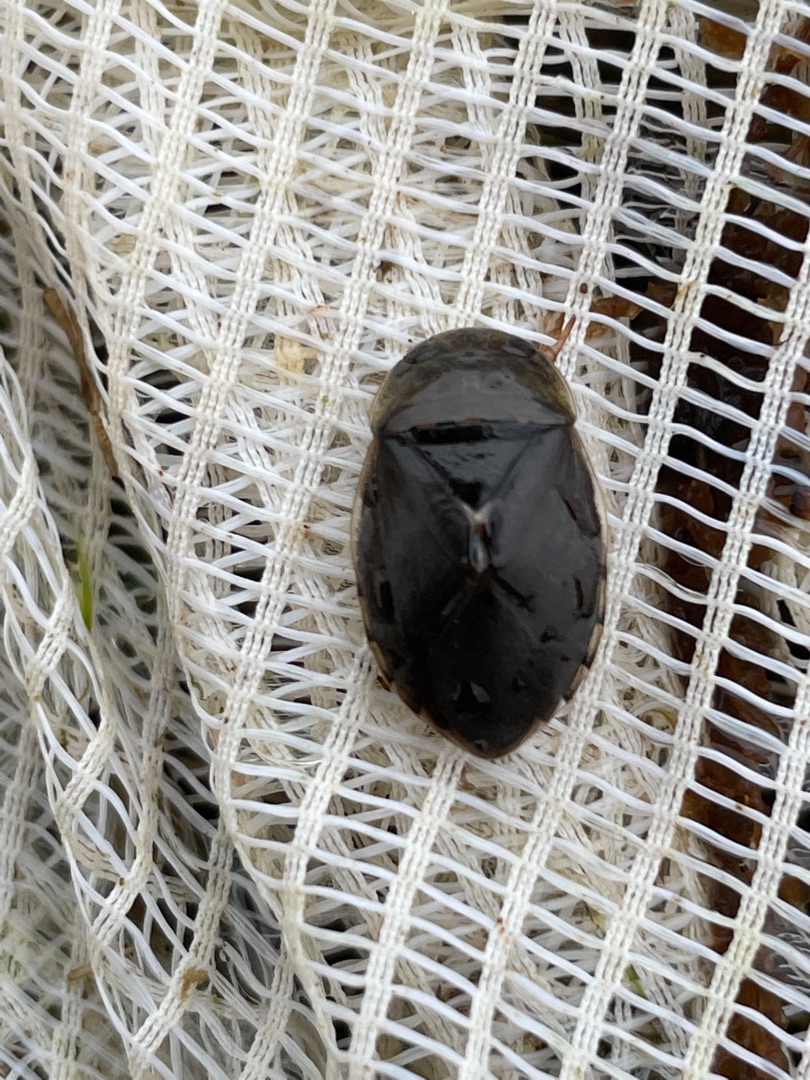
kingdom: Animalia
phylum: Arthropoda
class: Insecta
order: Hemiptera
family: Naucoridae
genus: Ilyocoris
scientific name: Ilyocoris cimicoides
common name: Vandrøver
